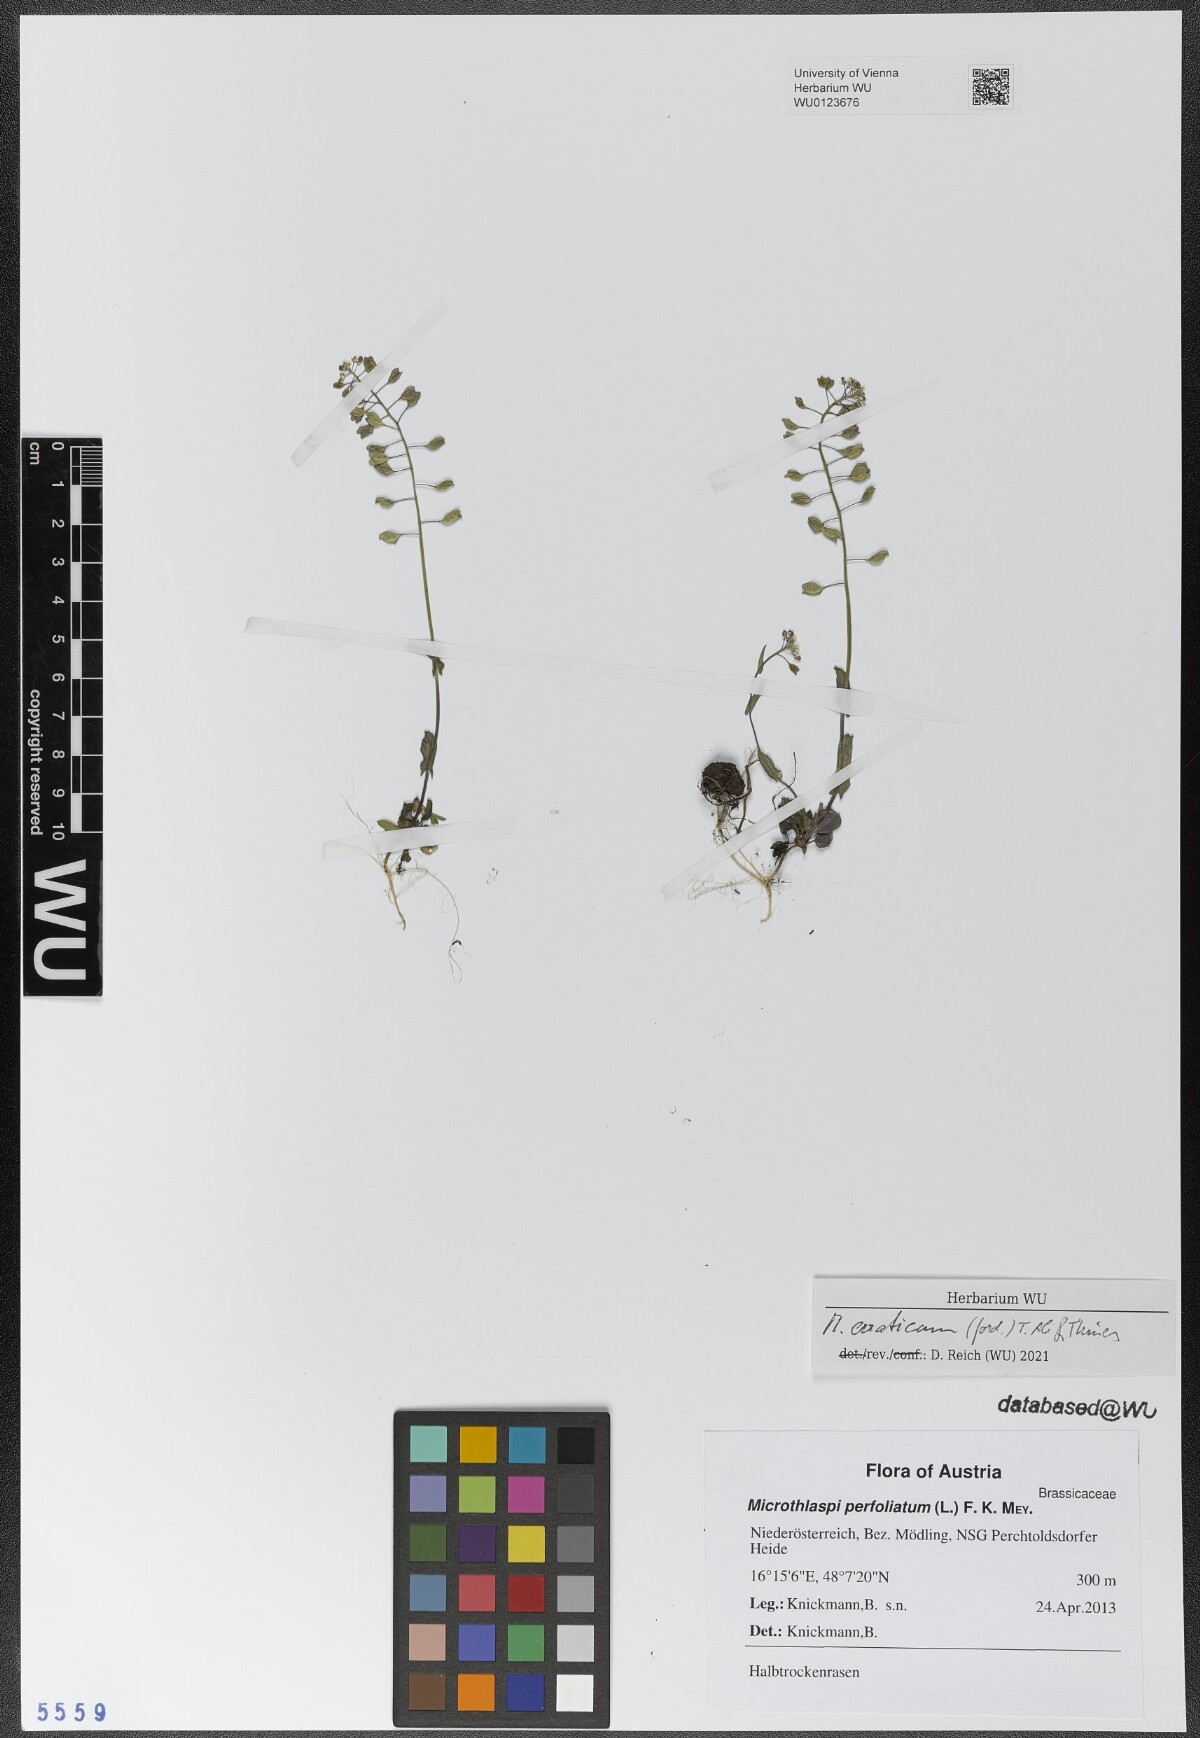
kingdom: Plantae
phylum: Tracheophyta
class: Magnoliopsida
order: Brassicales
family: Brassicaceae
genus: Noccaea
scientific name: Noccaea perfoliata
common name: Perfoliate pennycress
